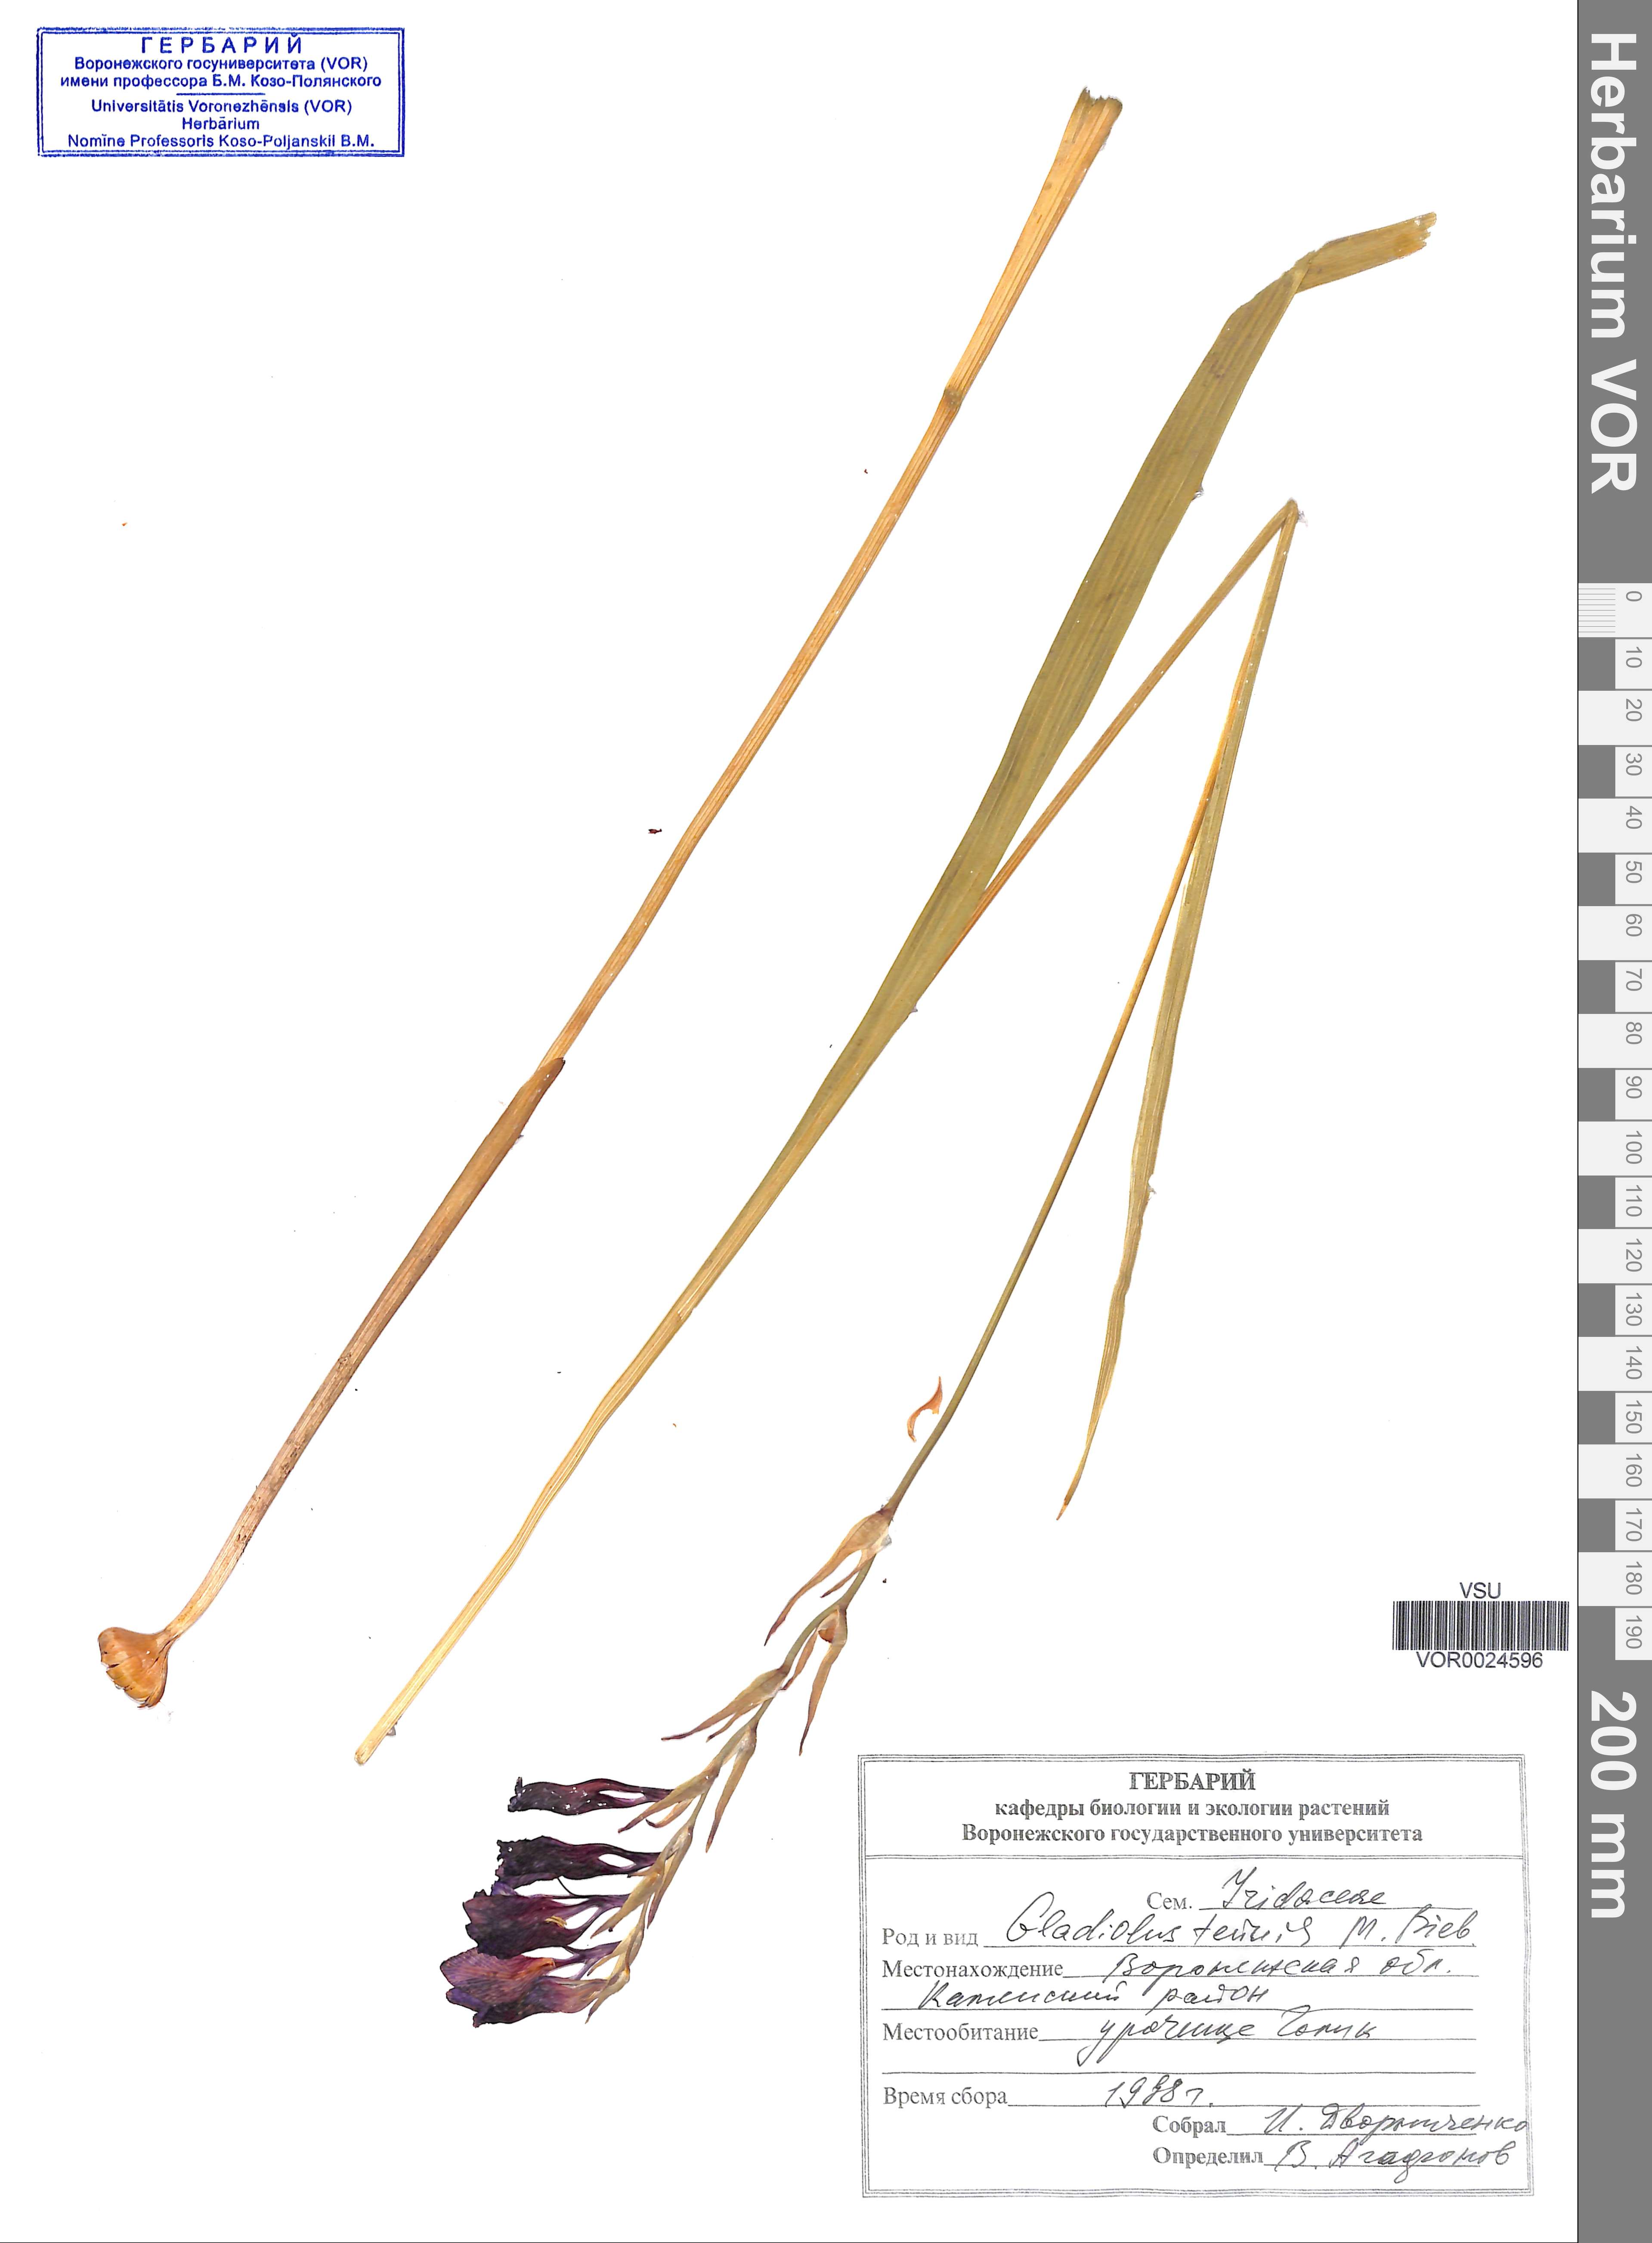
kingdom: Plantae
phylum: Tracheophyta
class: Liliopsida
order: Asparagales
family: Iridaceae
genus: Gladiolus
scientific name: Gladiolus tenuis
